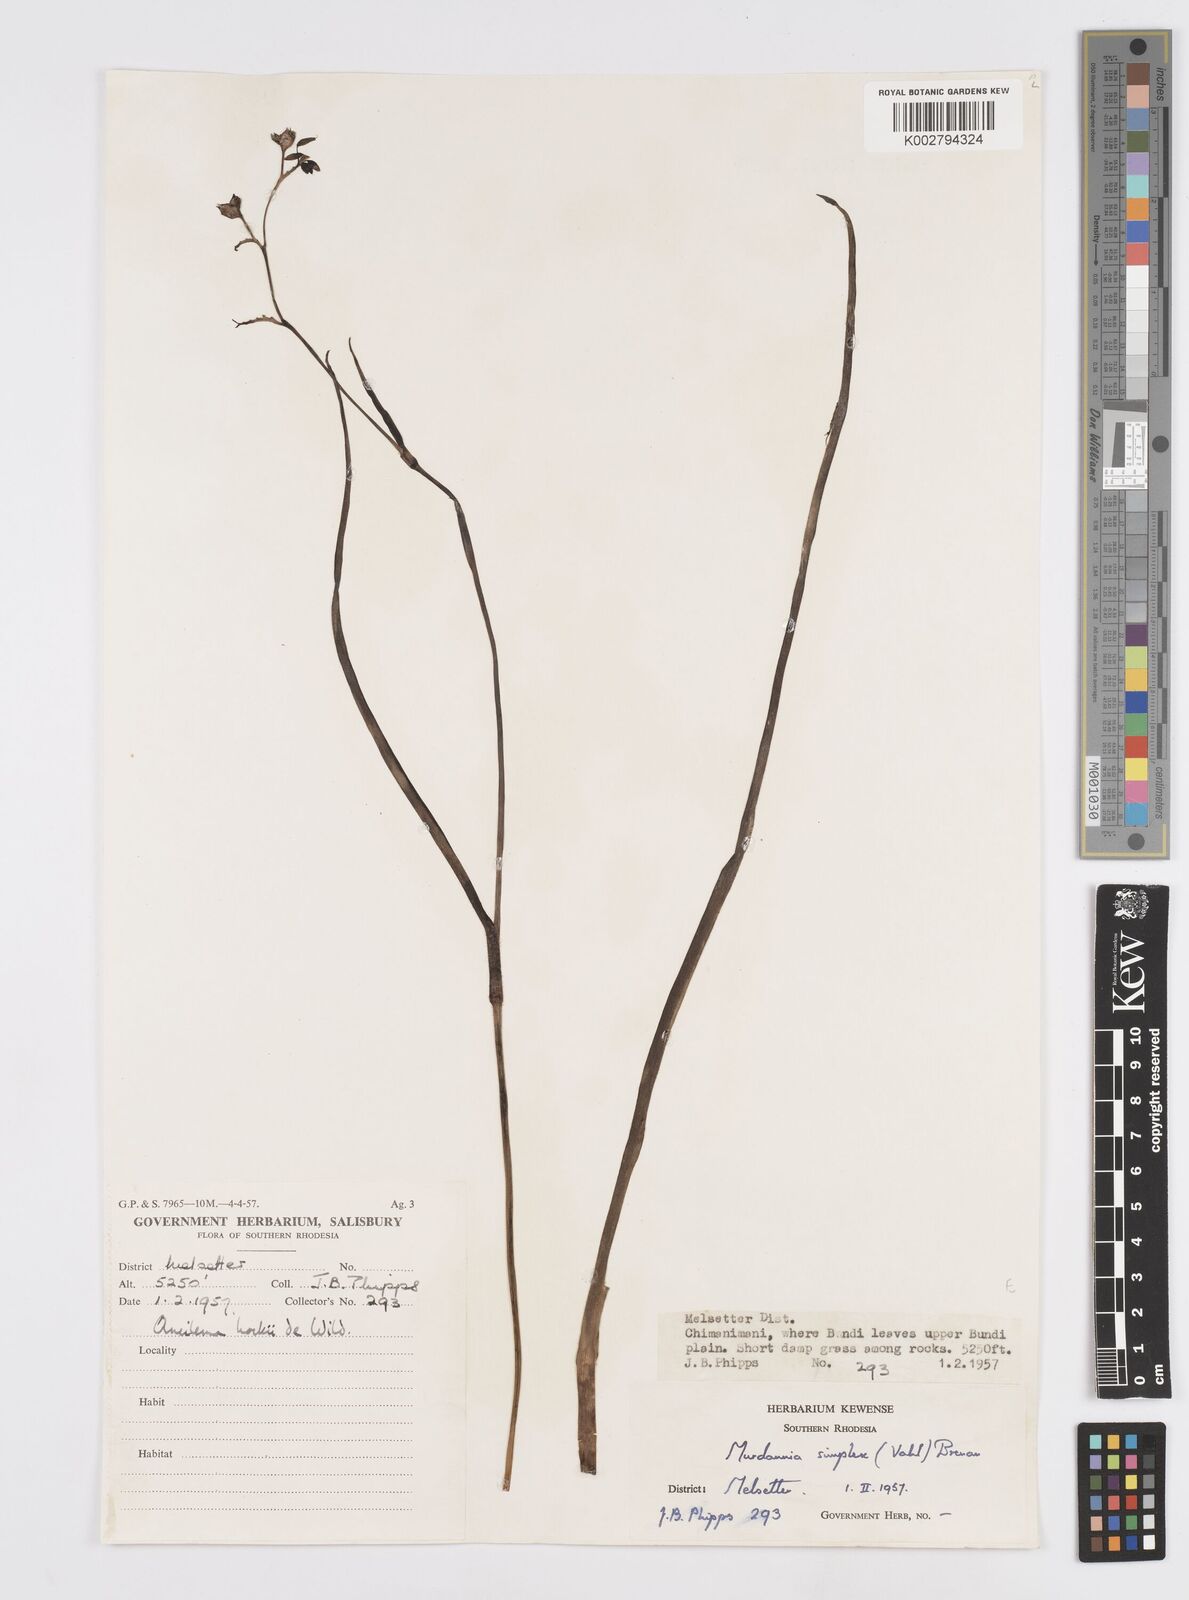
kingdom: Plantae
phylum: Tracheophyta
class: Liliopsida
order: Commelinales
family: Commelinaceae
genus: Murdannia
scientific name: Murdannia simplex
